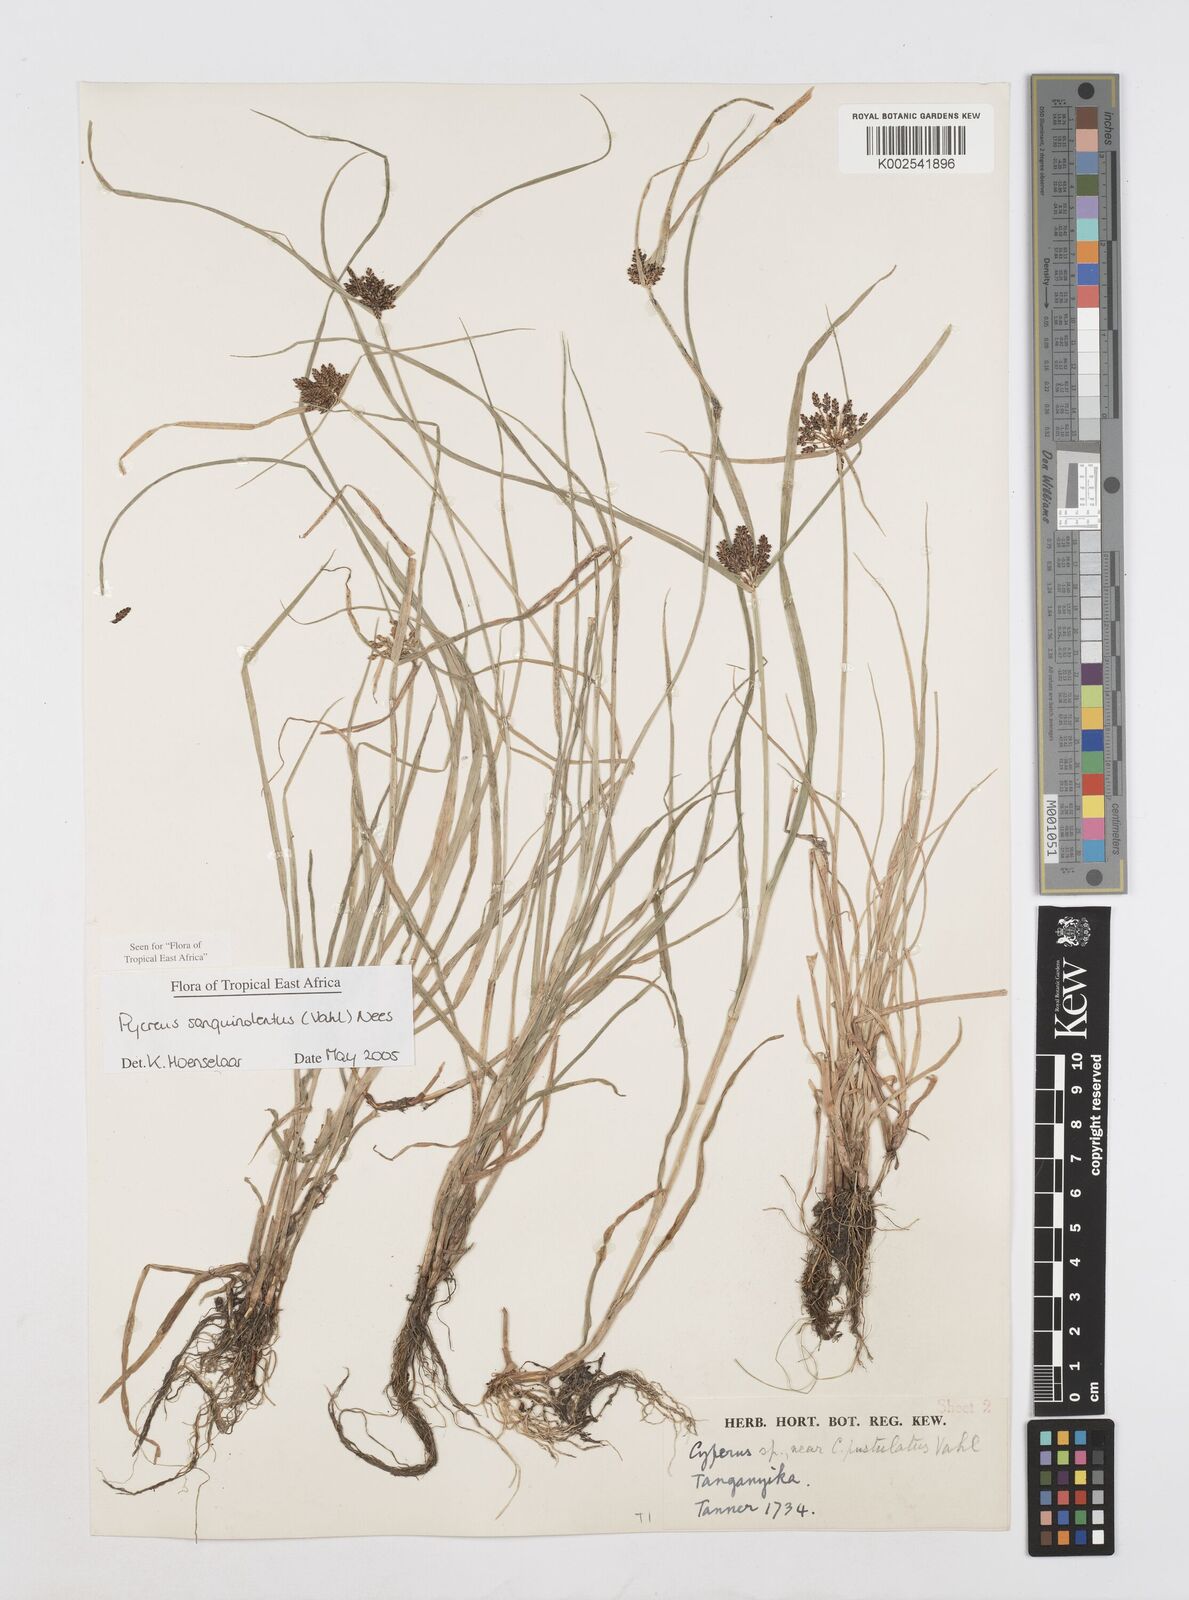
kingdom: Plantae
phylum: Tracheophyta
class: Liliopsida
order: Poales
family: Cyperaceae
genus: Cyperus
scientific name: Cyperus sanguinolentus
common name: Purpleglume flatsedge
